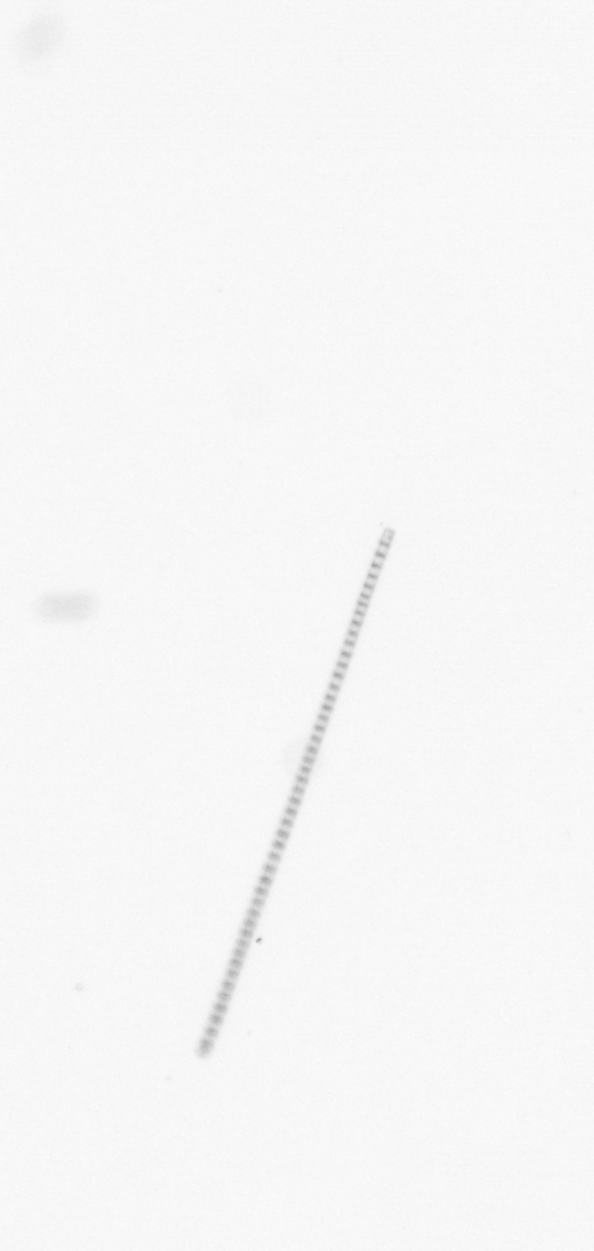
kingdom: Chromista
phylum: Ochrophyta
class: Bacillariophyceae
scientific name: Bacillariophyceae
